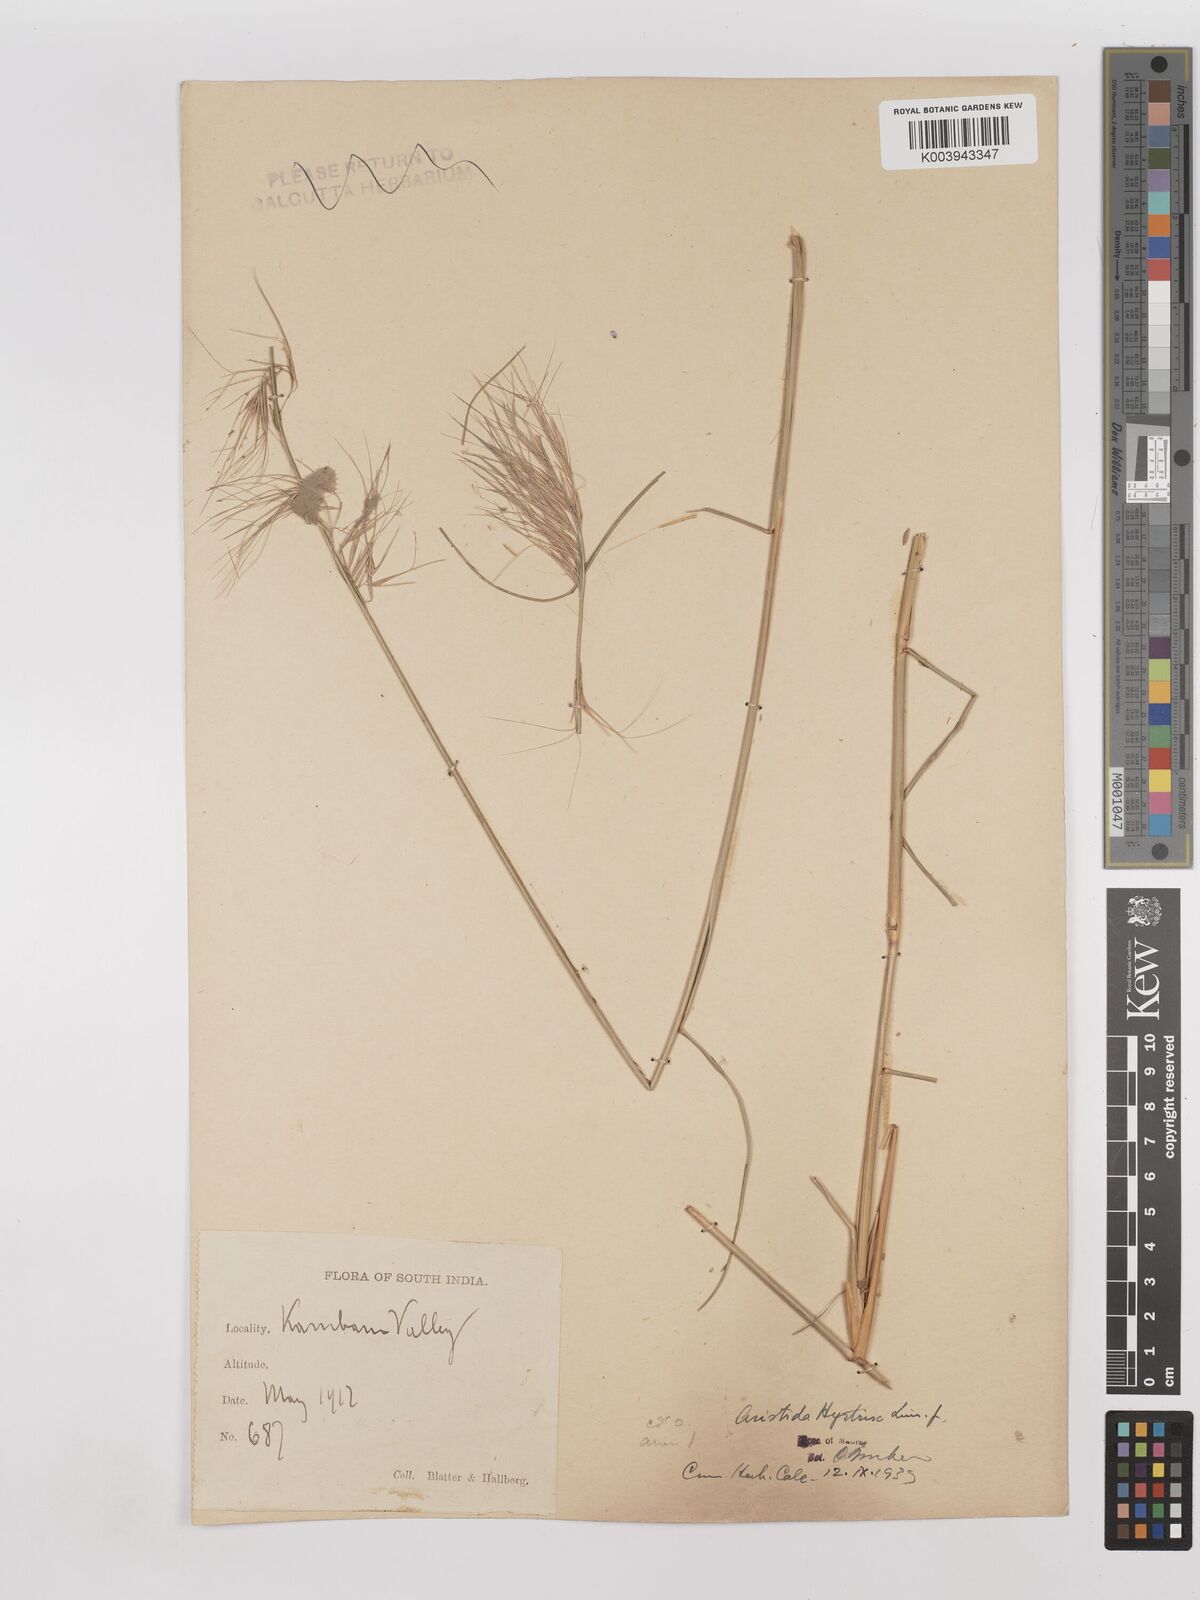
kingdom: Plantae
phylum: Tracheophyta
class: Liliopsida
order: Poales
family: Poaceae
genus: Aristida
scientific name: Aristida hystrix
